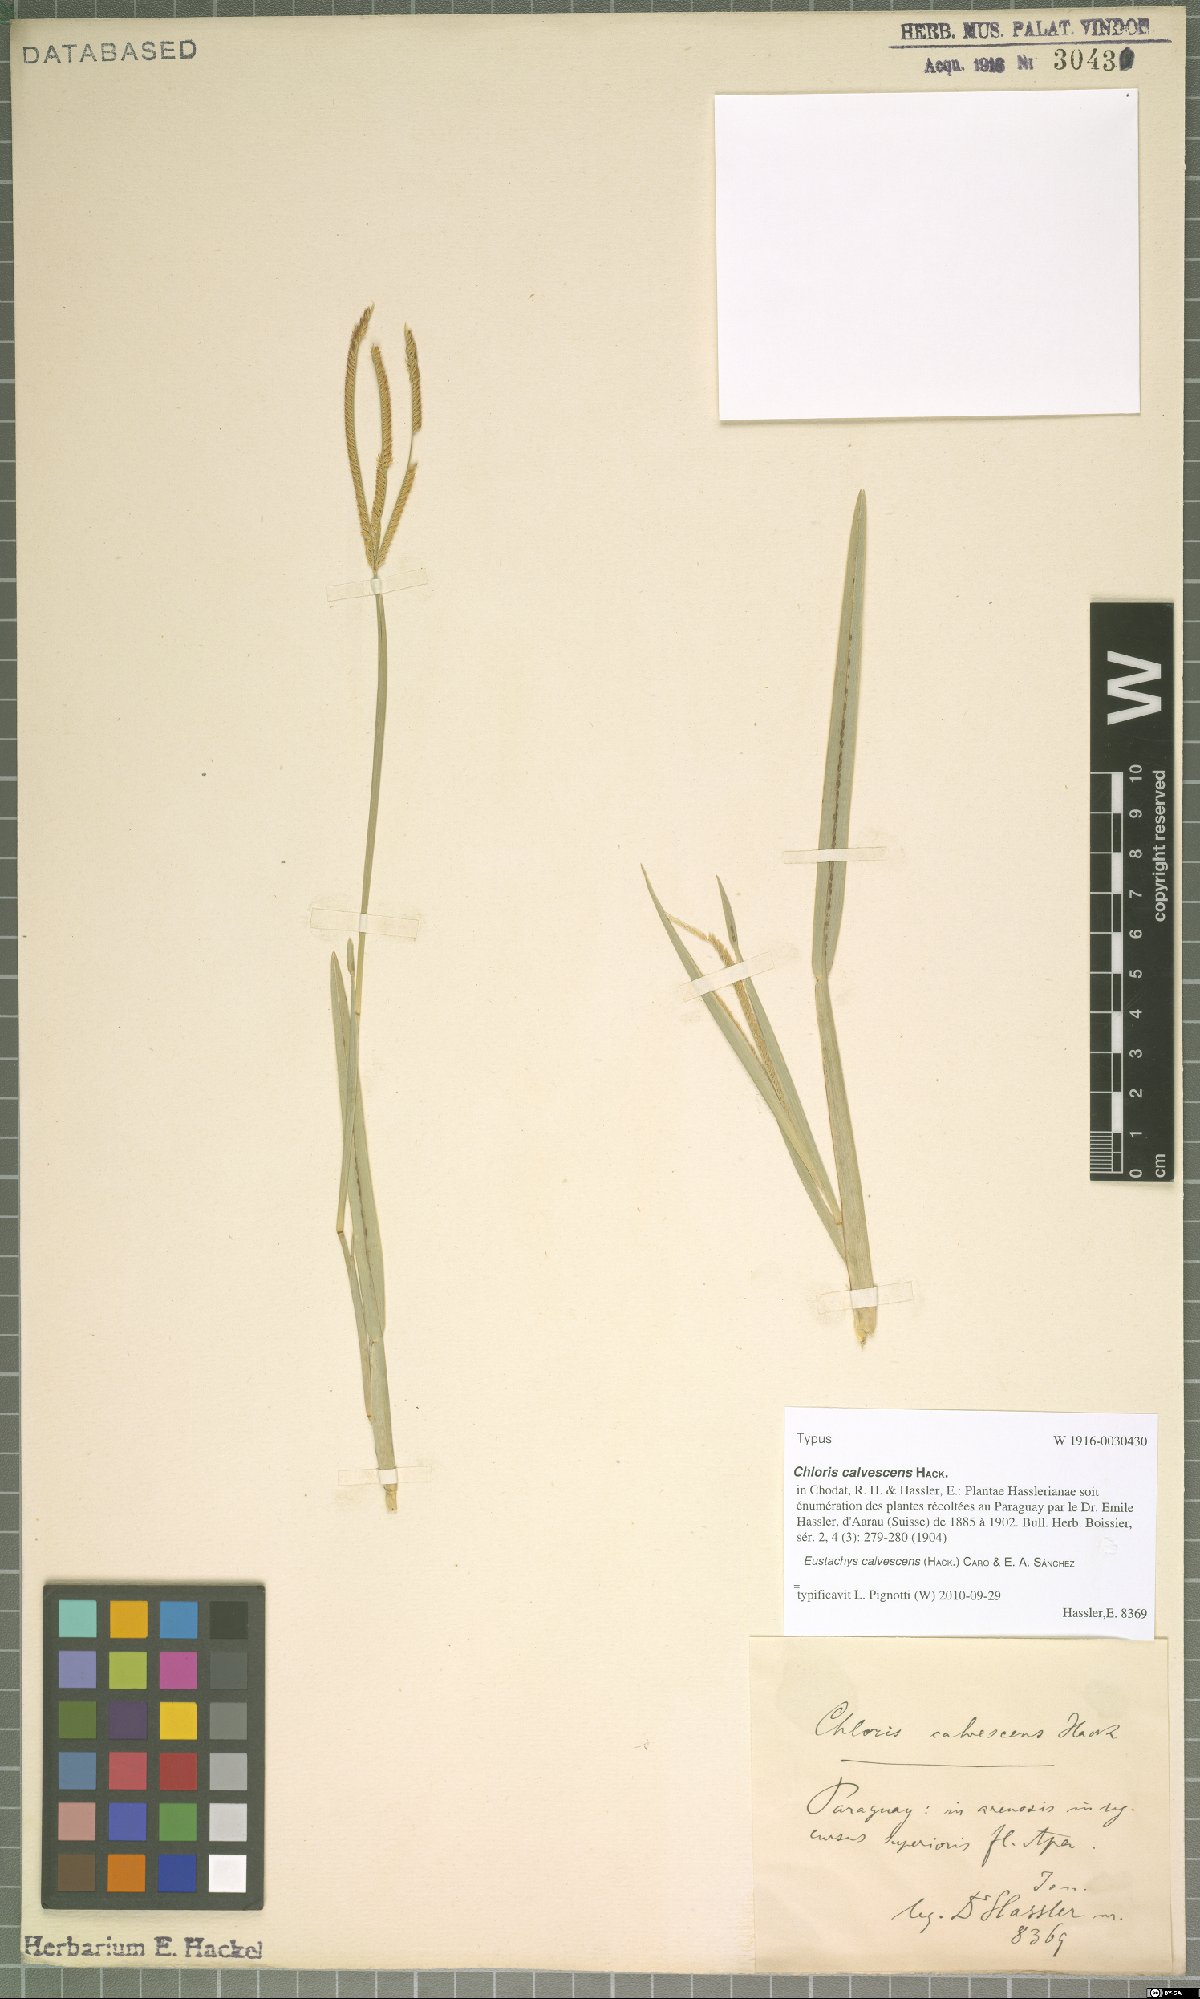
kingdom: Plantae
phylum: Tracheophyta
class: Liliopsida
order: Poales
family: Poaceae
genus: Eustachys
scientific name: Eustachys calvescens
